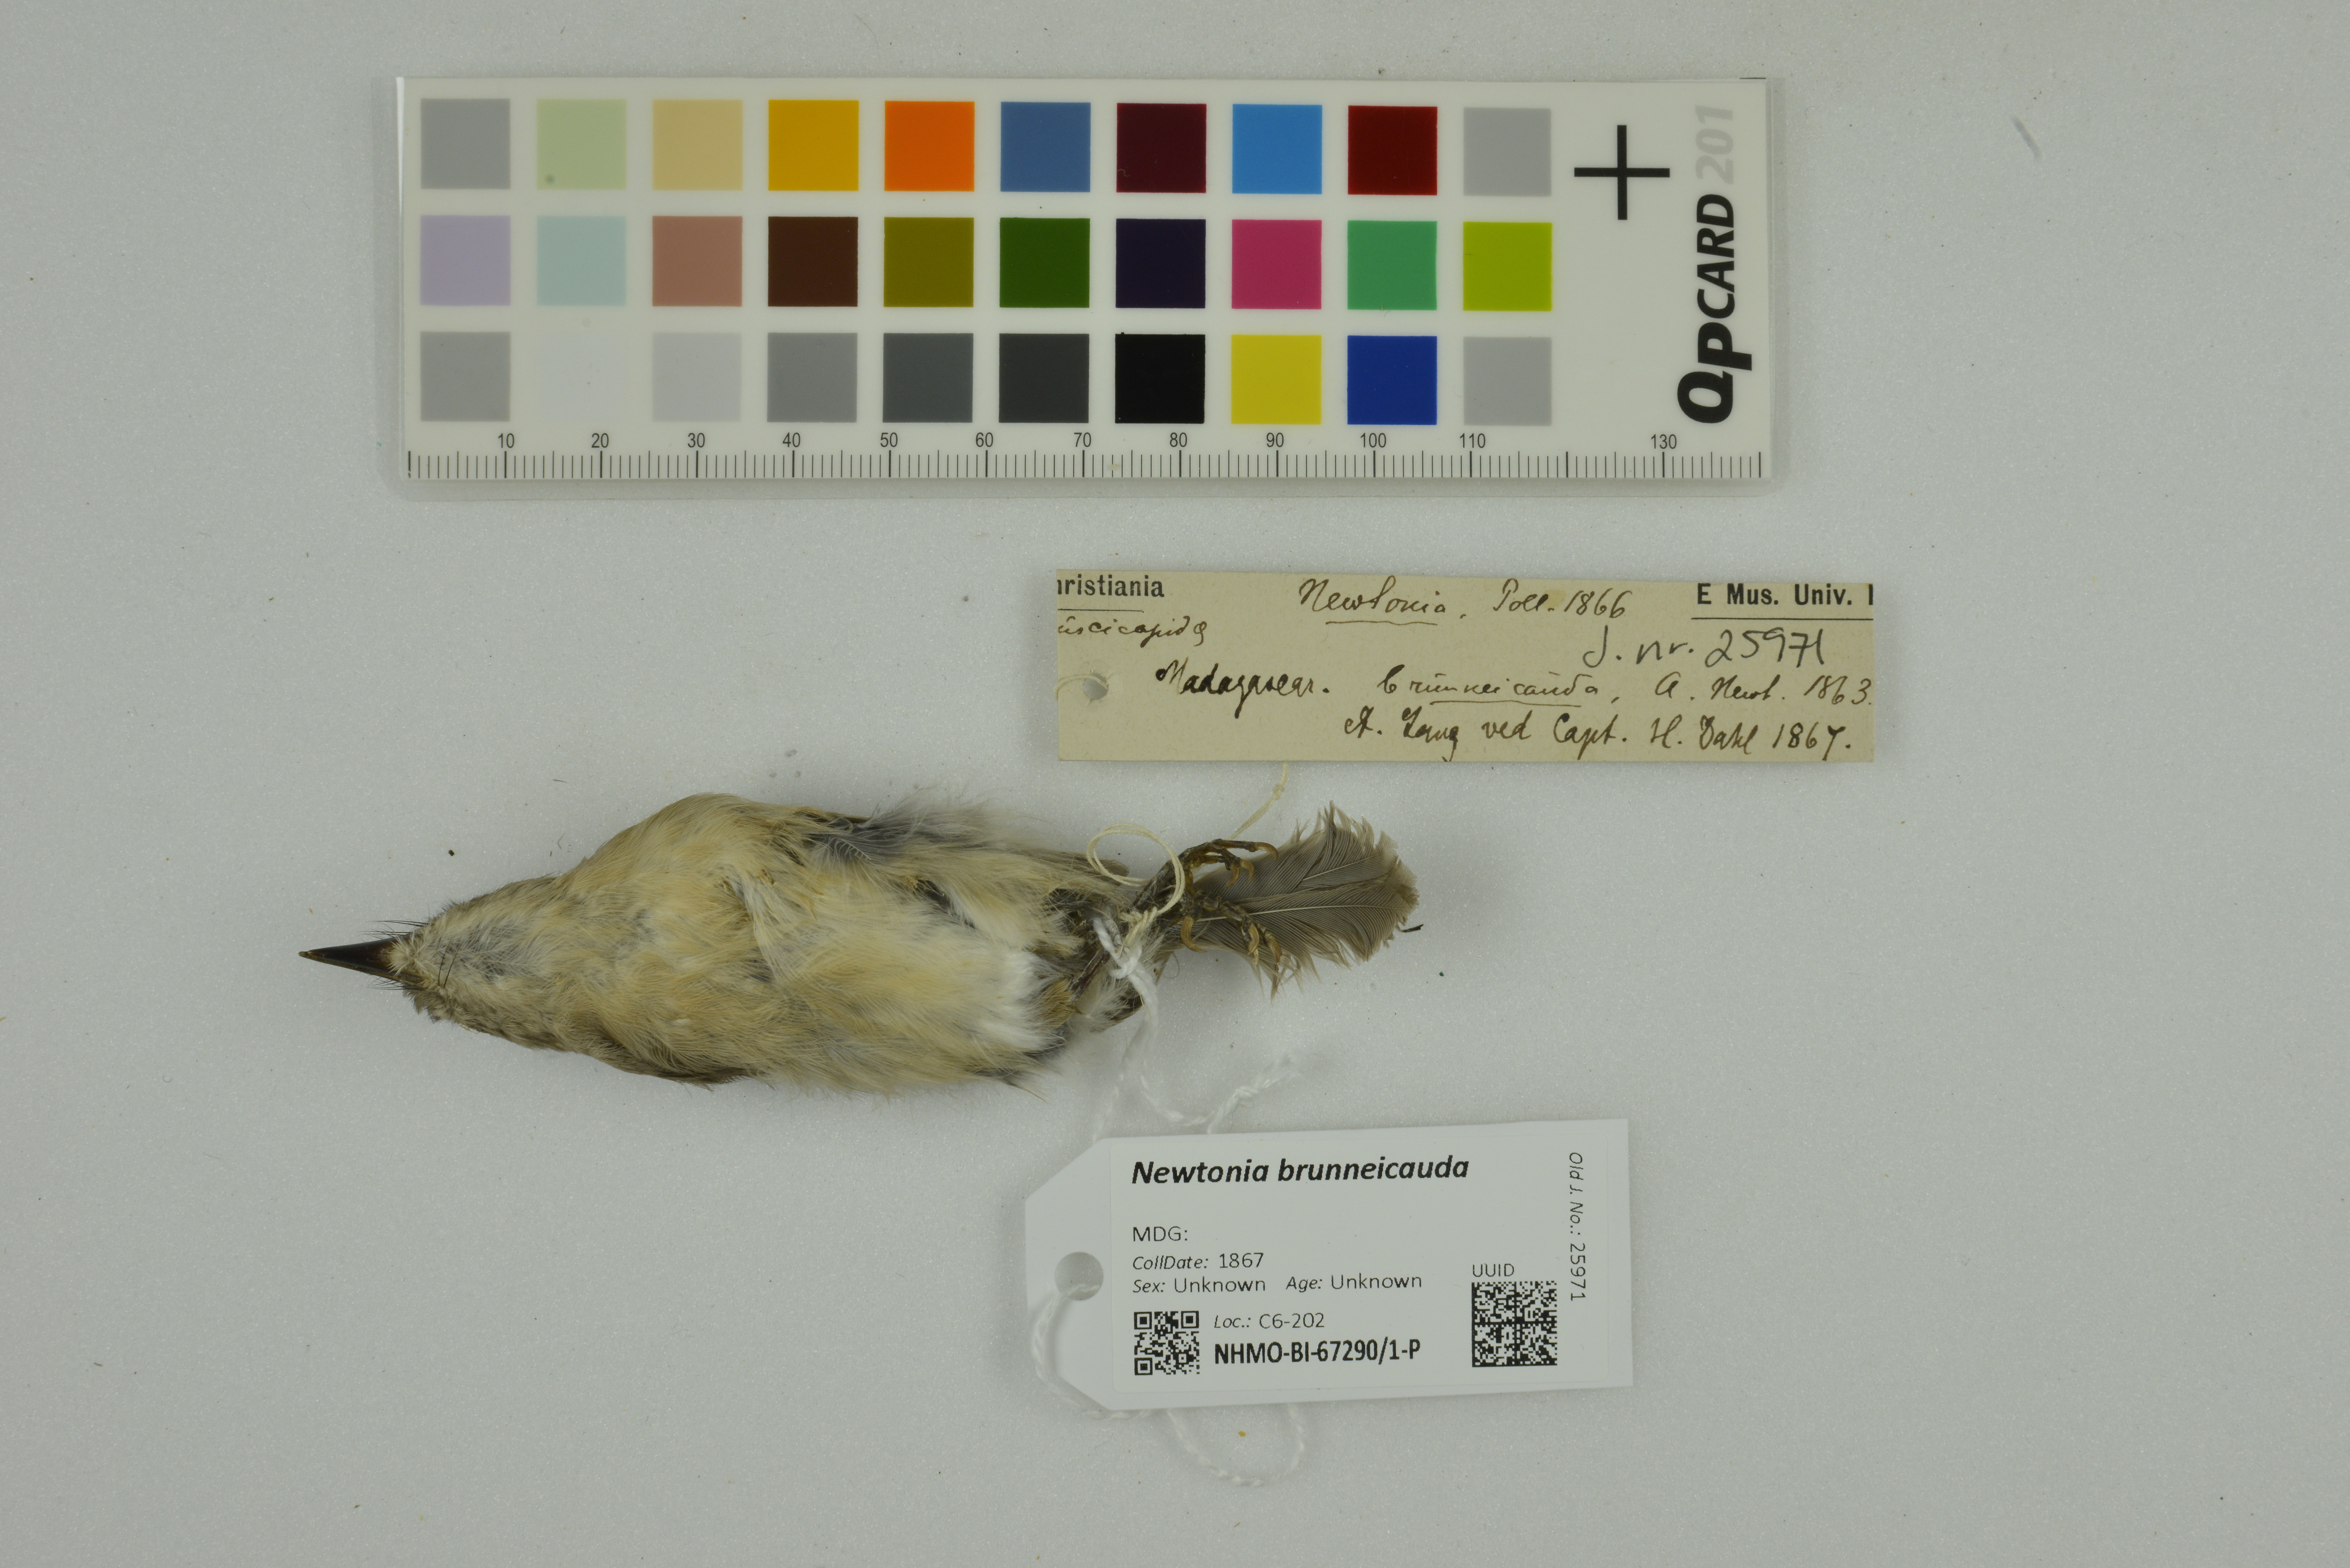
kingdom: Animalia
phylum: Chordata
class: Aves
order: Passeriformes
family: Vangidae
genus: Newtonia
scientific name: Newtonia brunneicauda
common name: Common newtonia
